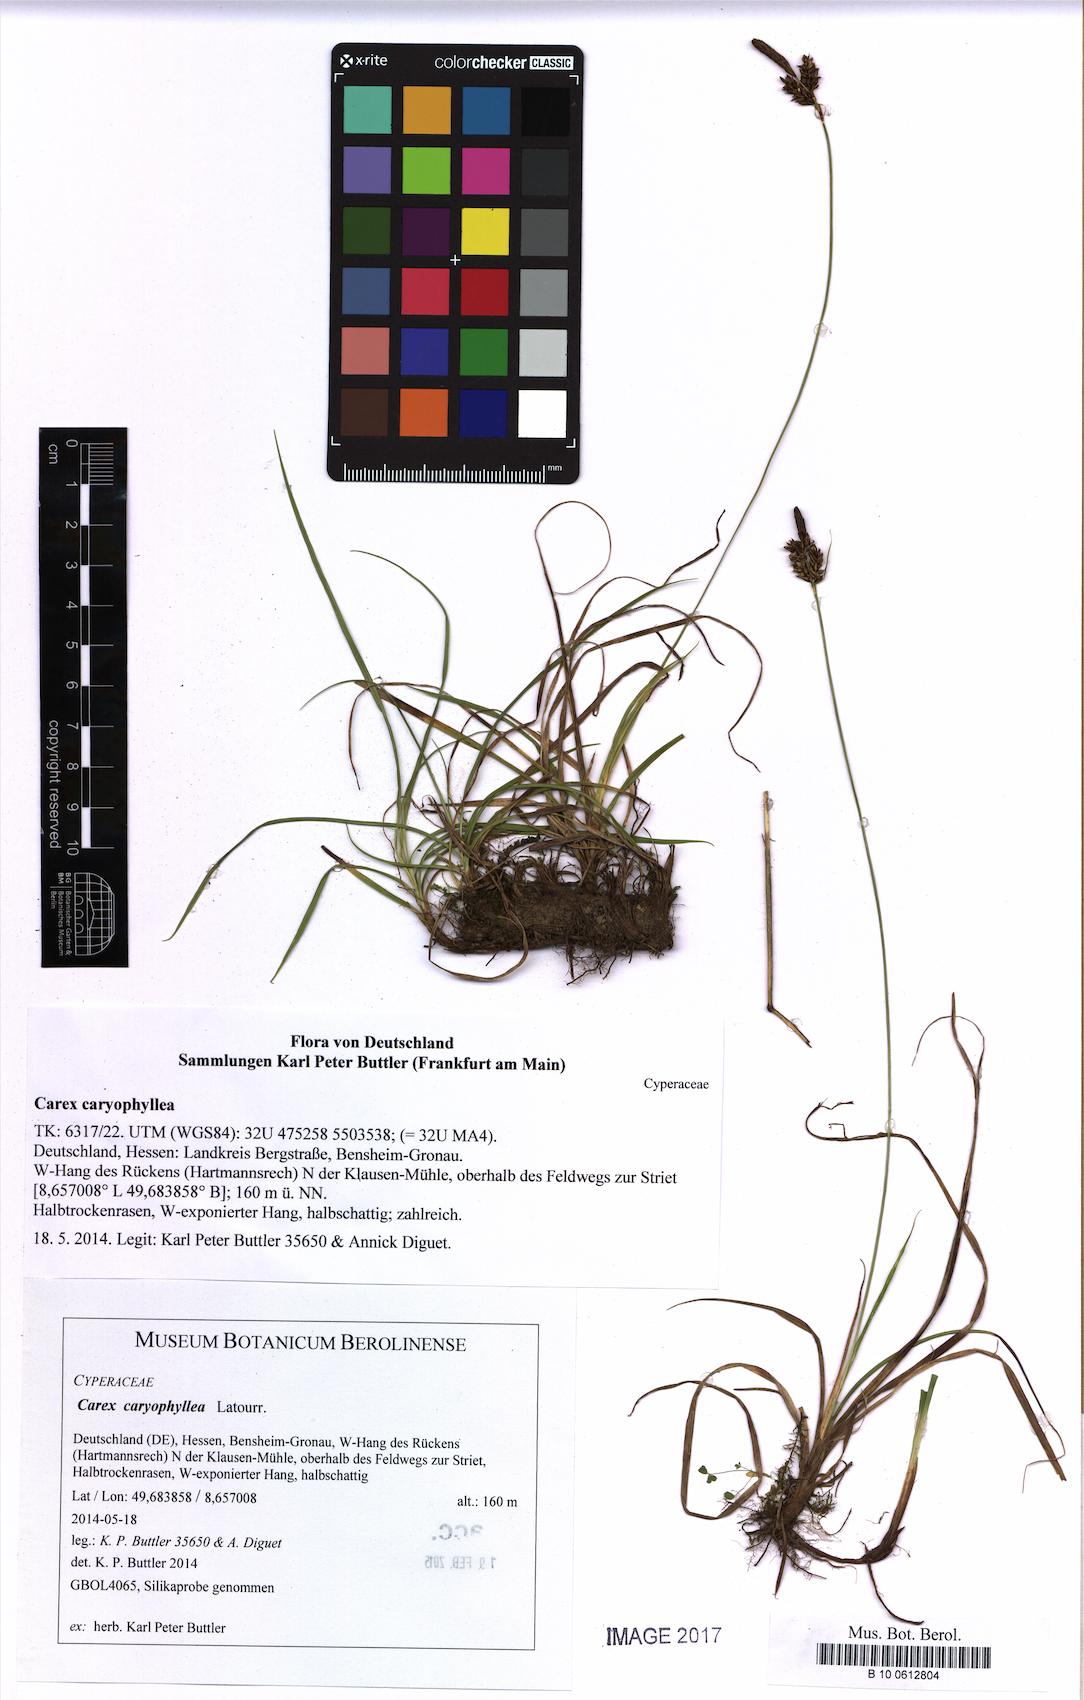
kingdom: Plantae
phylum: Tracheophyta
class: Liliopsida
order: Poales
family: Cyperaceae
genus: Carex
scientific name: Carex caryophyllea
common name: Spring sedge
